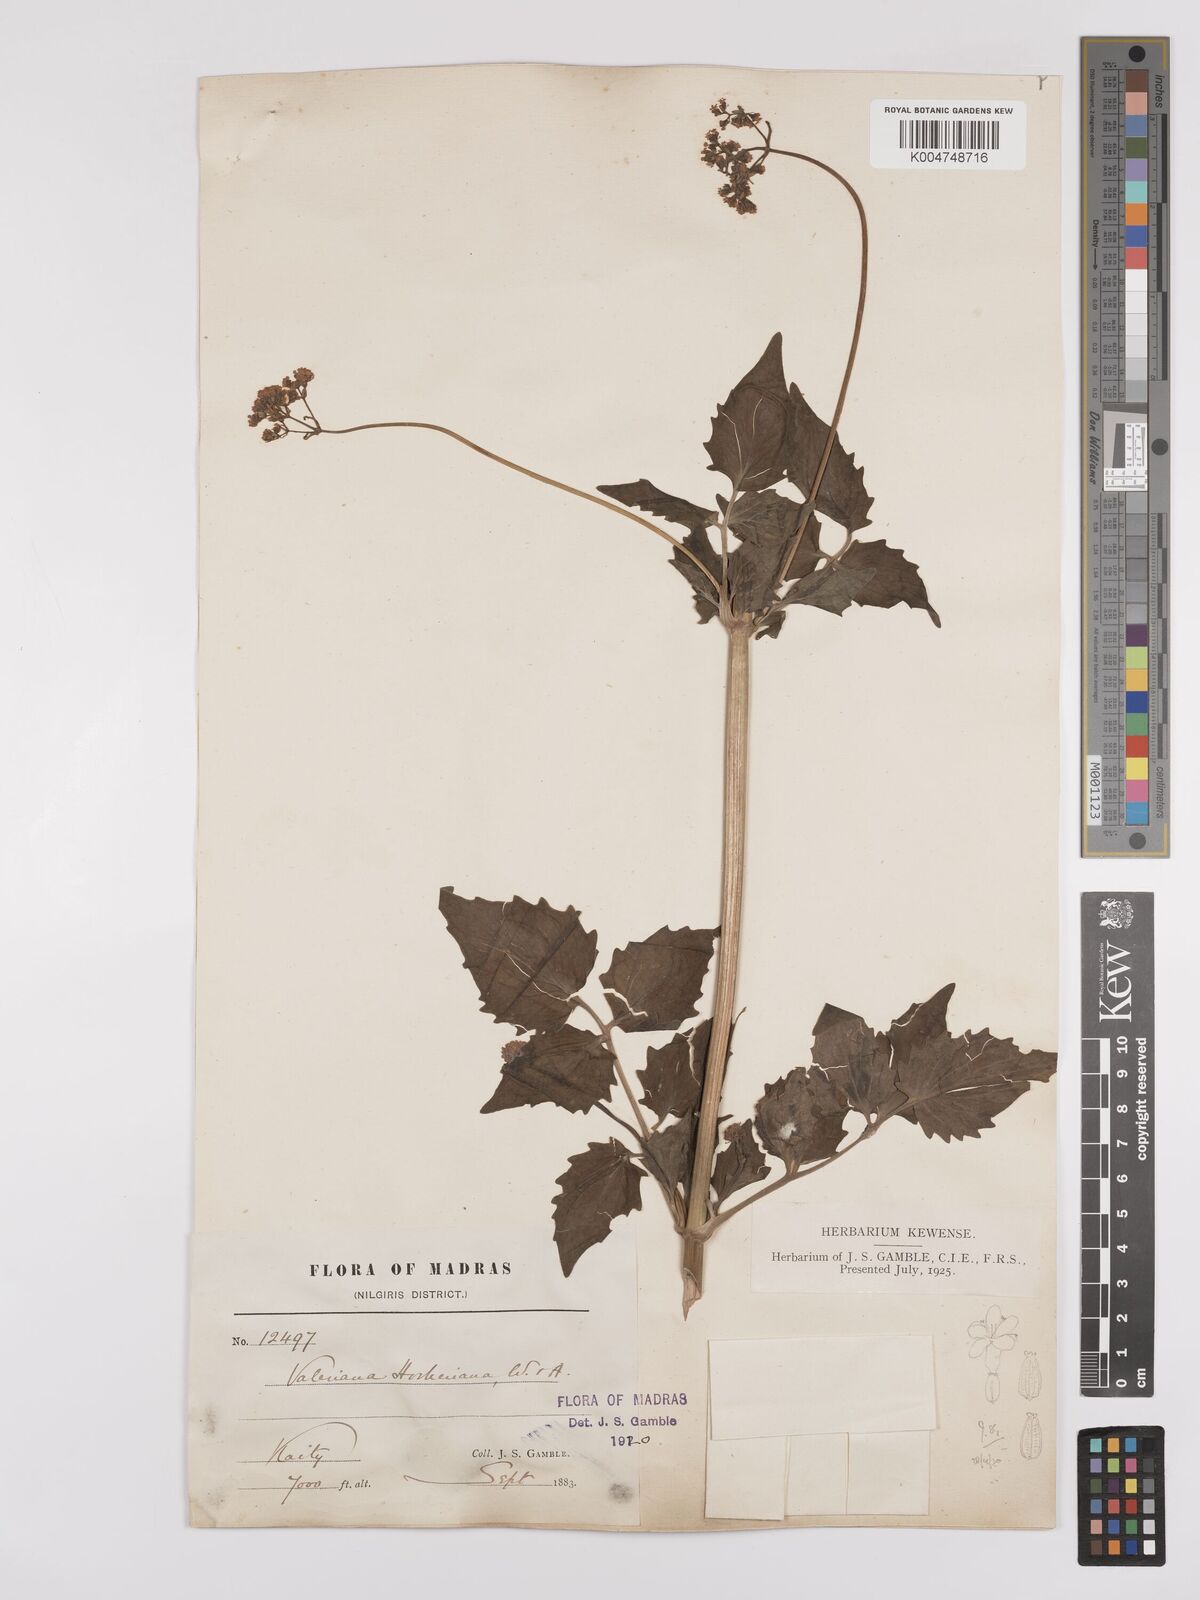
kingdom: Plantae
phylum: Tracheophyta
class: Magnoliopsida
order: Dipsacales
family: Caprifoliaceae
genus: Valeriana
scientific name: Valeriana hardwickei
